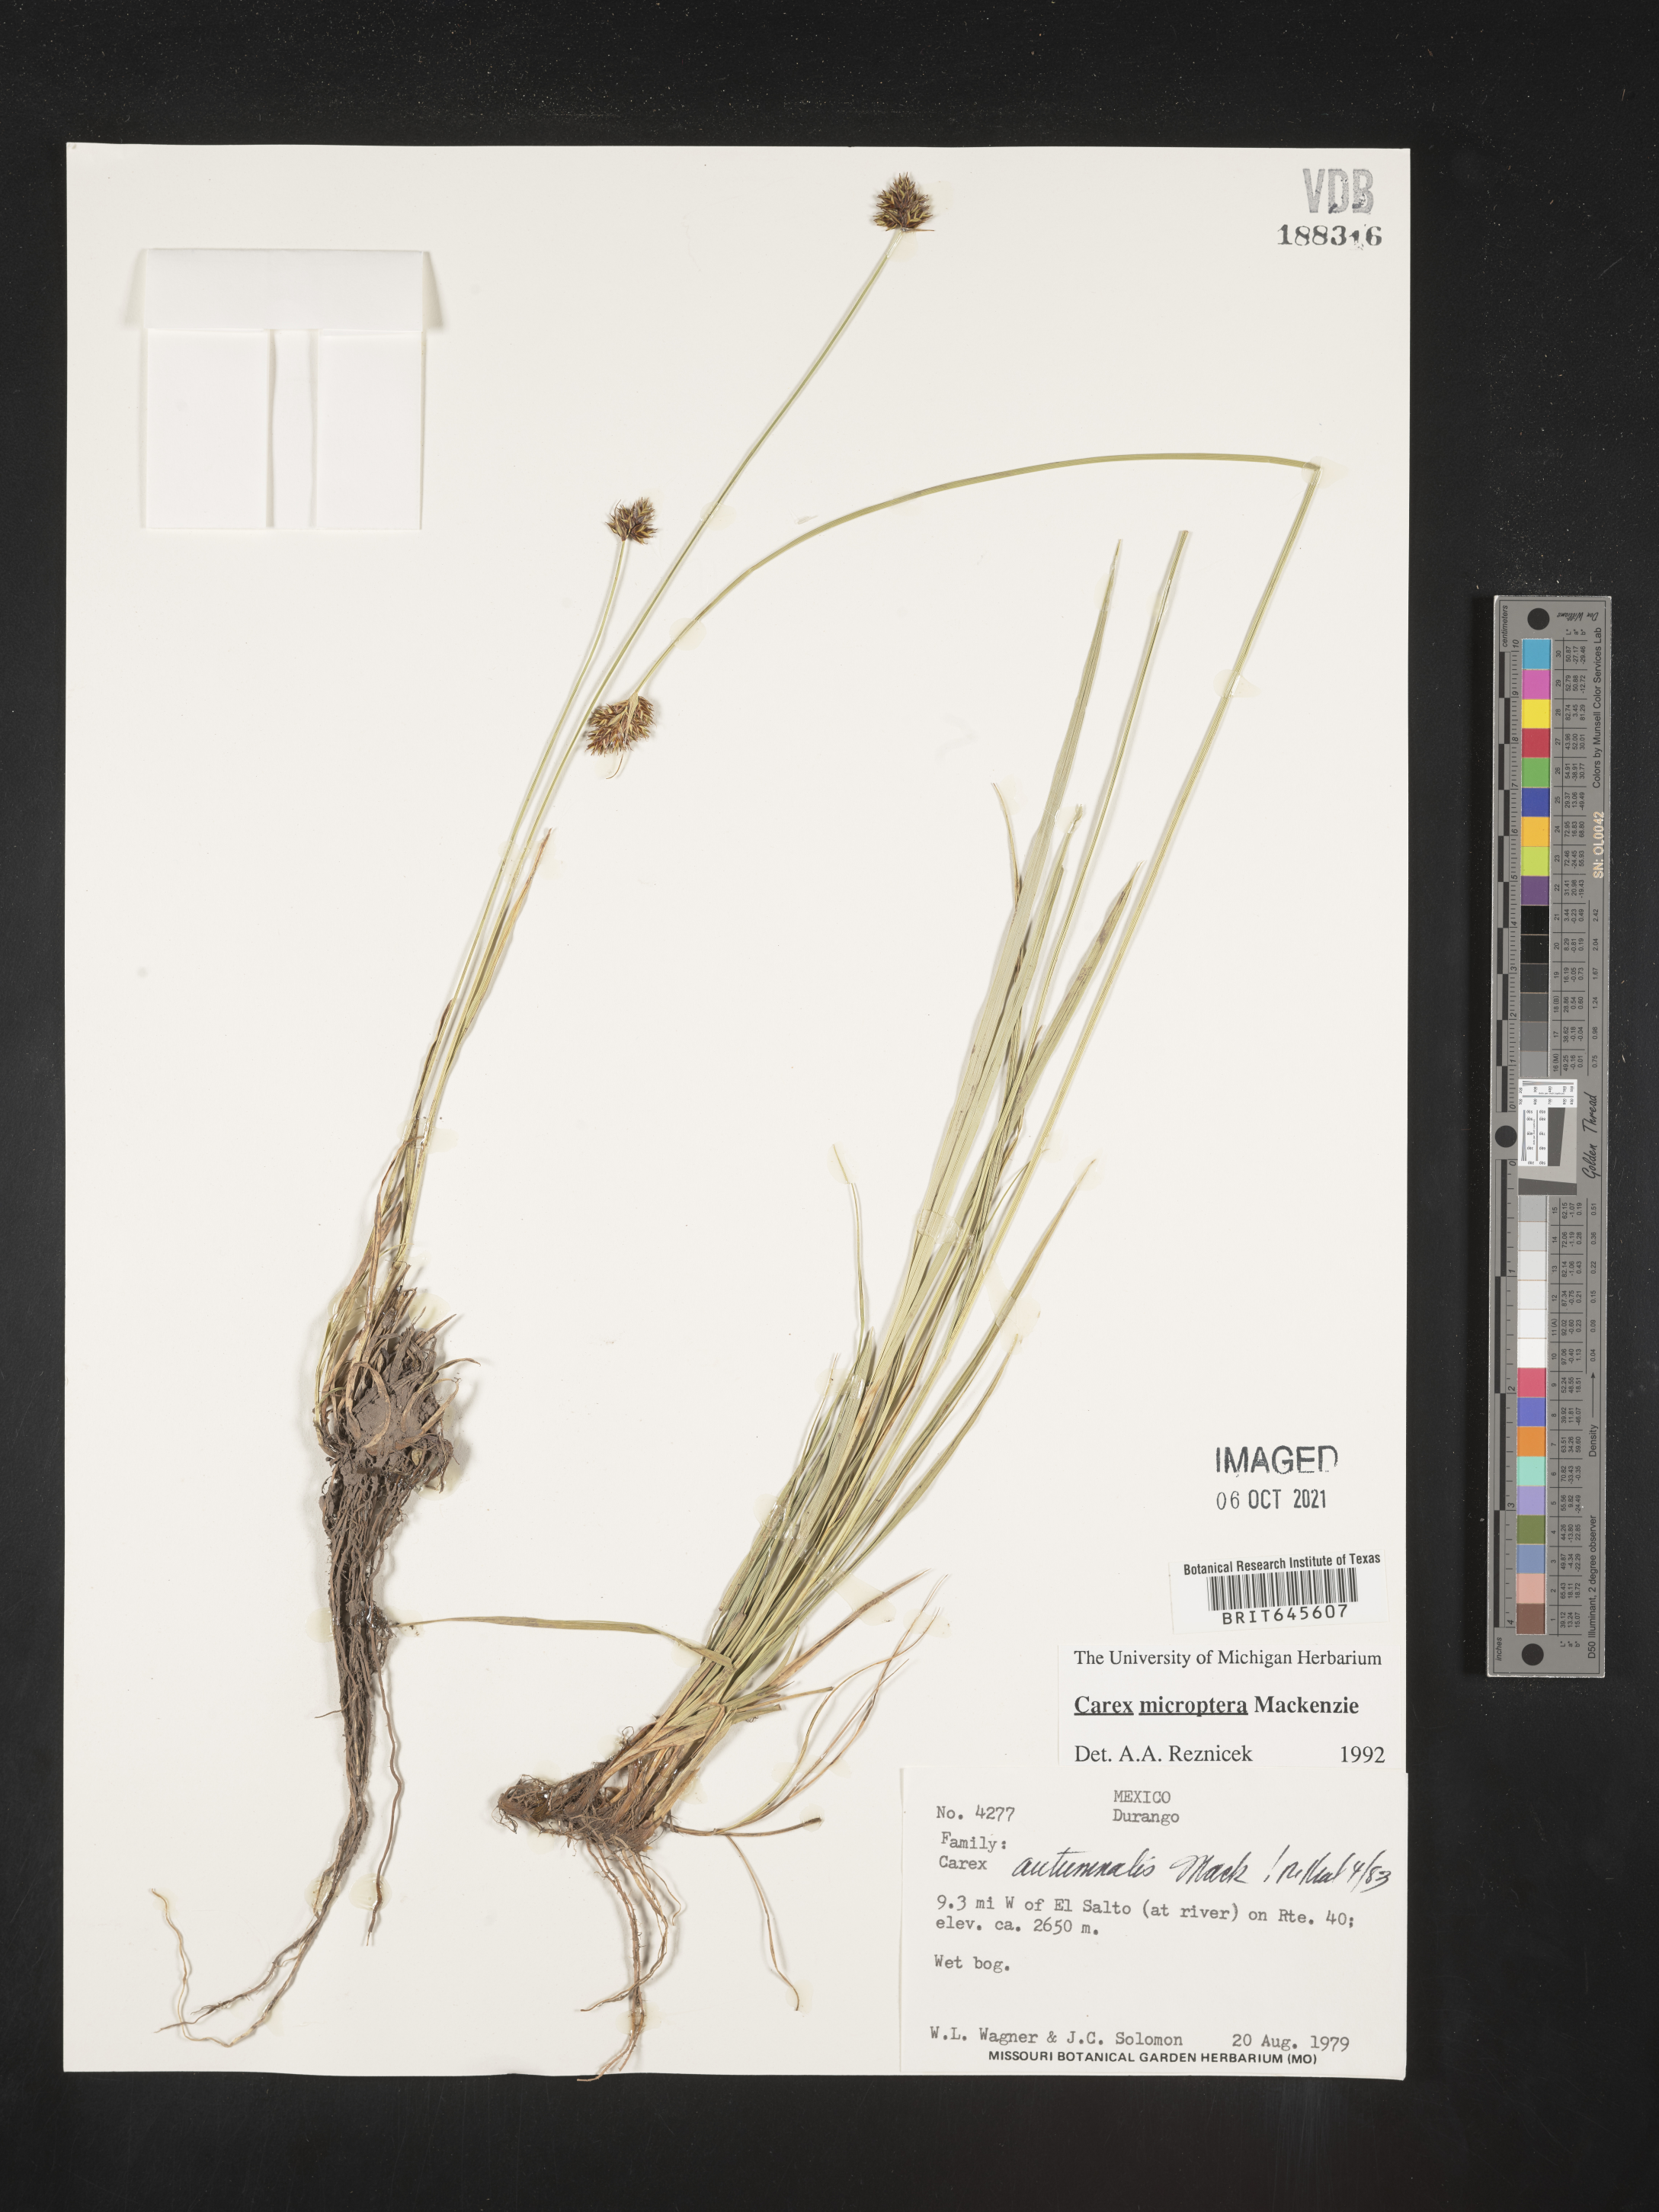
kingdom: Plantae
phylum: Tracheophyta
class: Liliopsida
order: Poales
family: Cyperaceae
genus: Carex
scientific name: Carex
